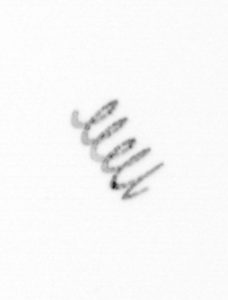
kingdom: Chromista
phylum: Ochrophyta
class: Bacillariophyceae
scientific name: Bacillariophyceae
